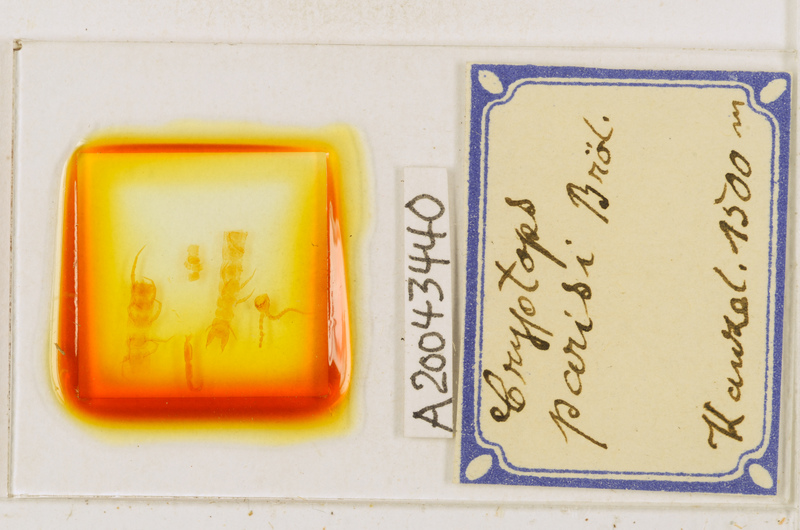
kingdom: Animalia
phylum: Arthropoda
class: Chilopoda
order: Scolopendromorpha
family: Cryptopidae
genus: Cryptops
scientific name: Cryptops parisi
